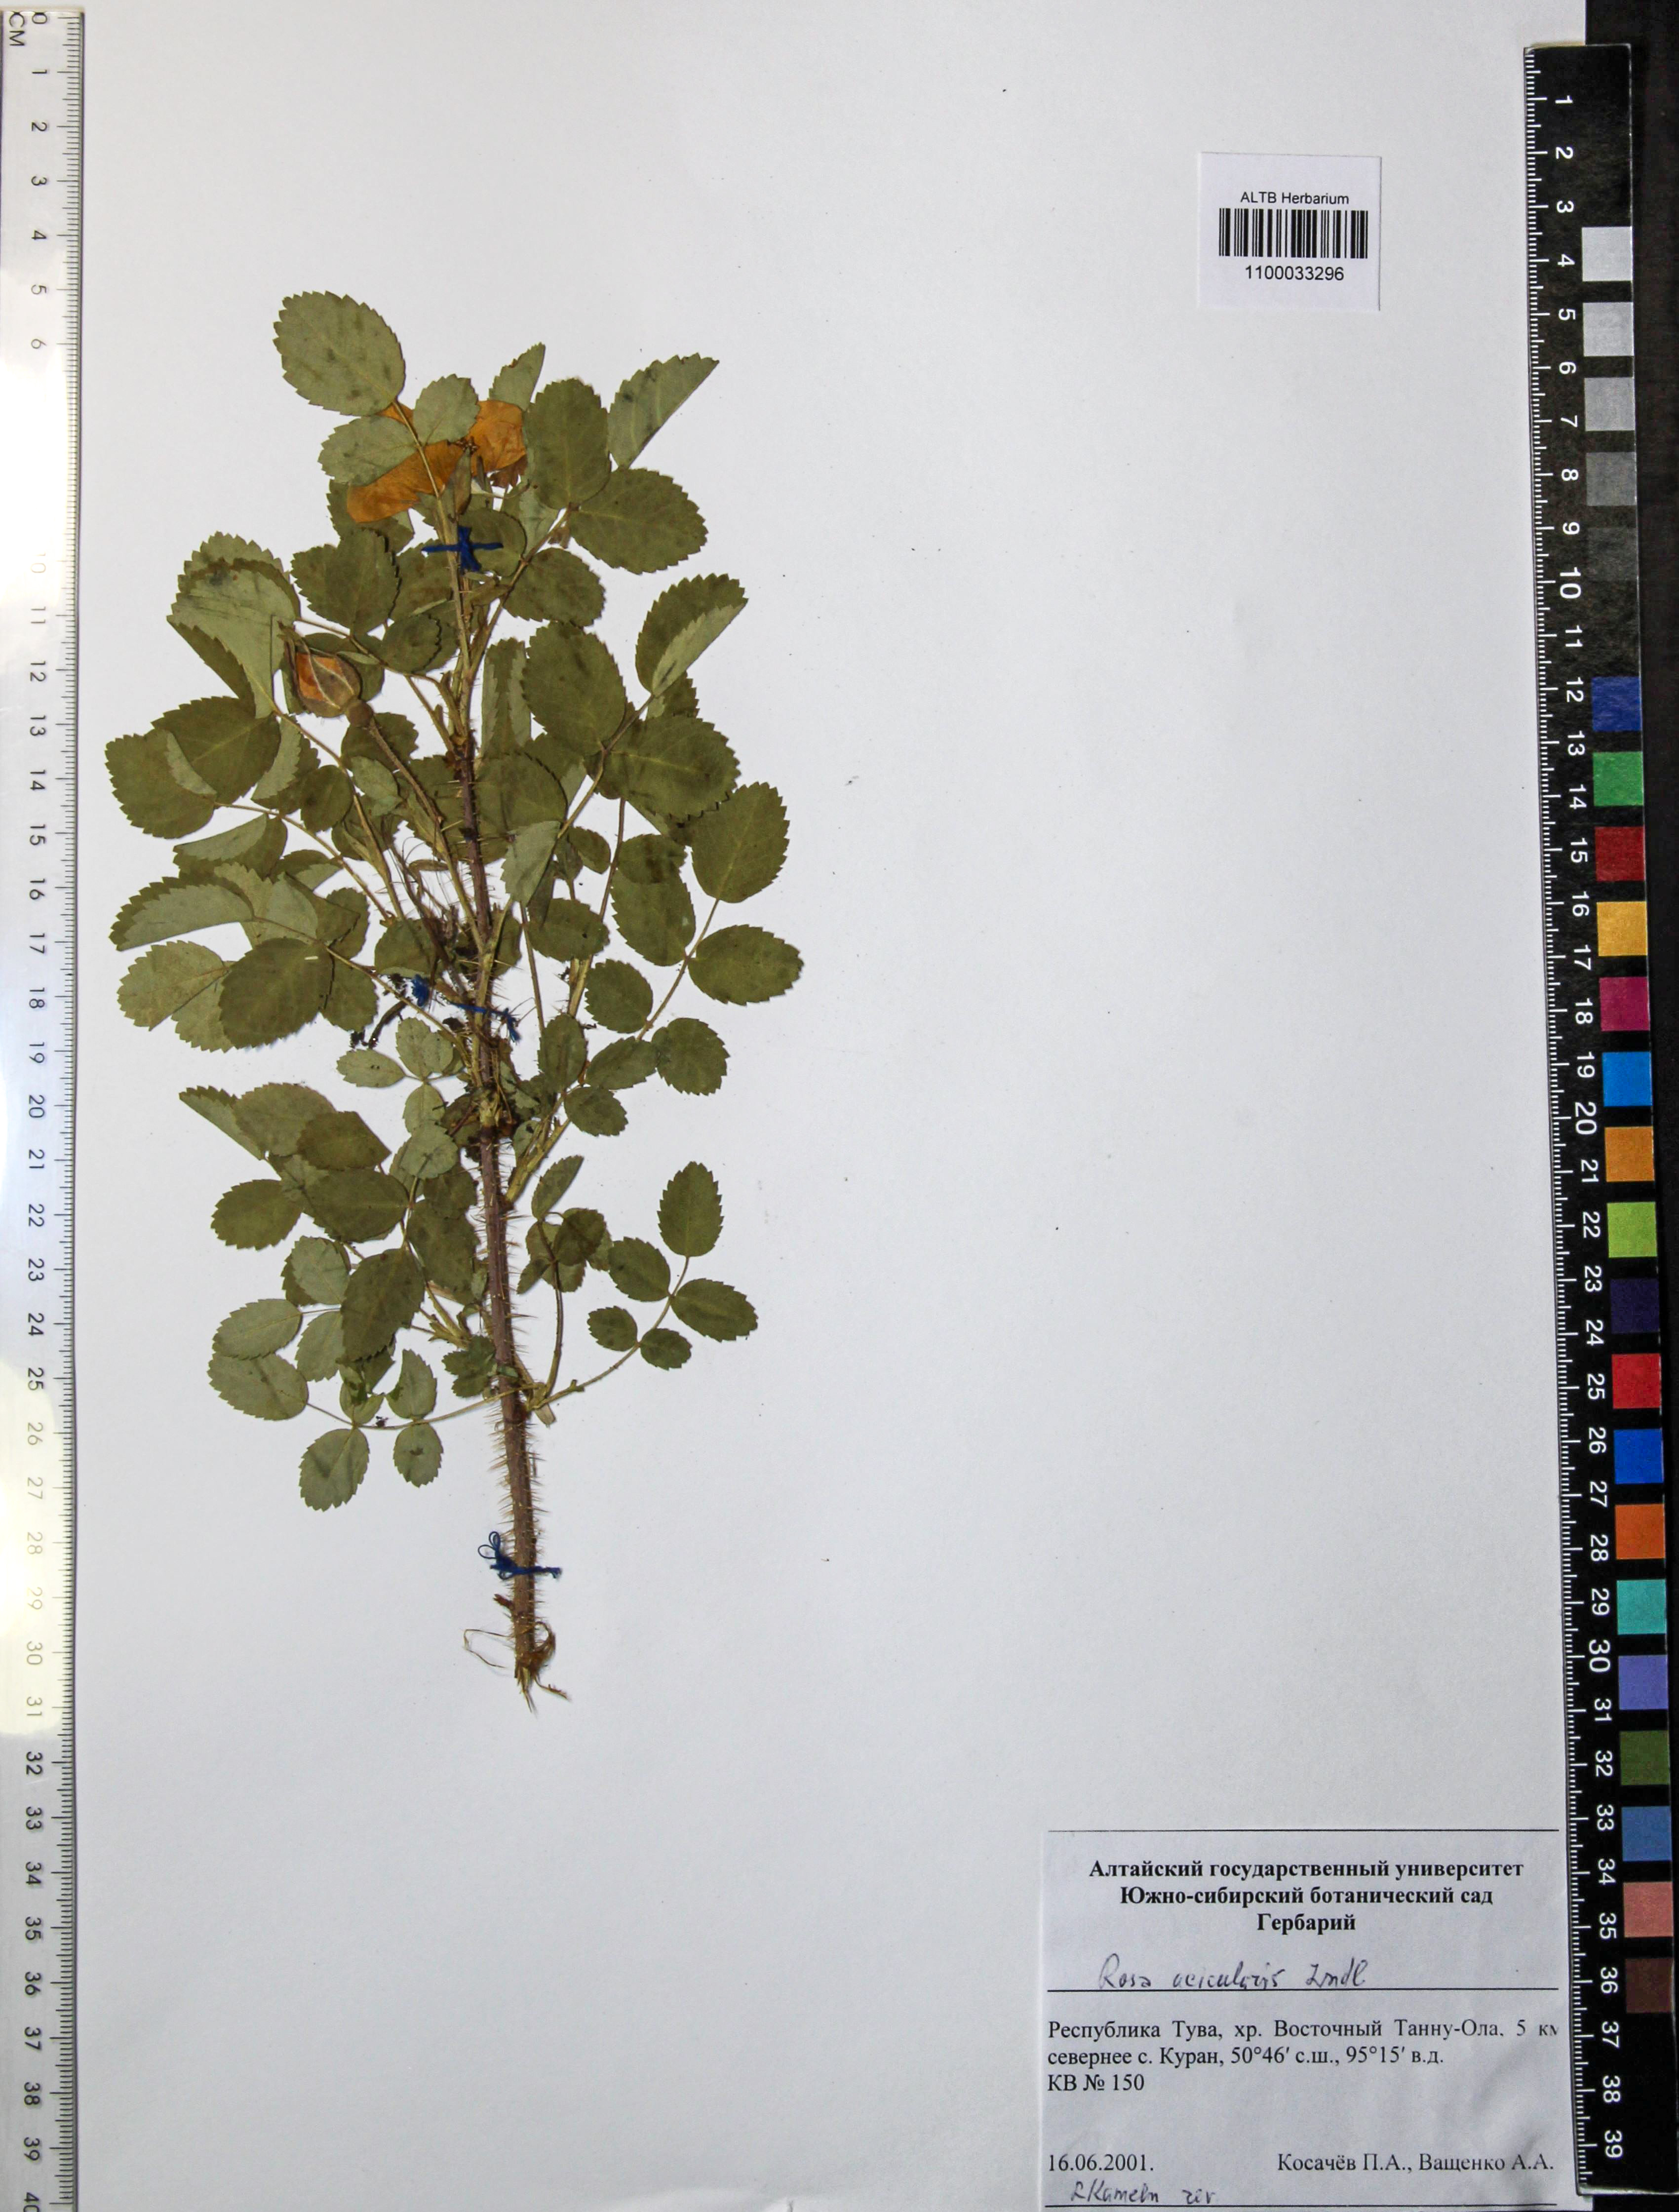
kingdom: Plantae
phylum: Tracheophyta
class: Magnoliopsida
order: Rosales
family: Rosaceae
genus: Rosa
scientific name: Rosa acicularis
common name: Prickly rose
